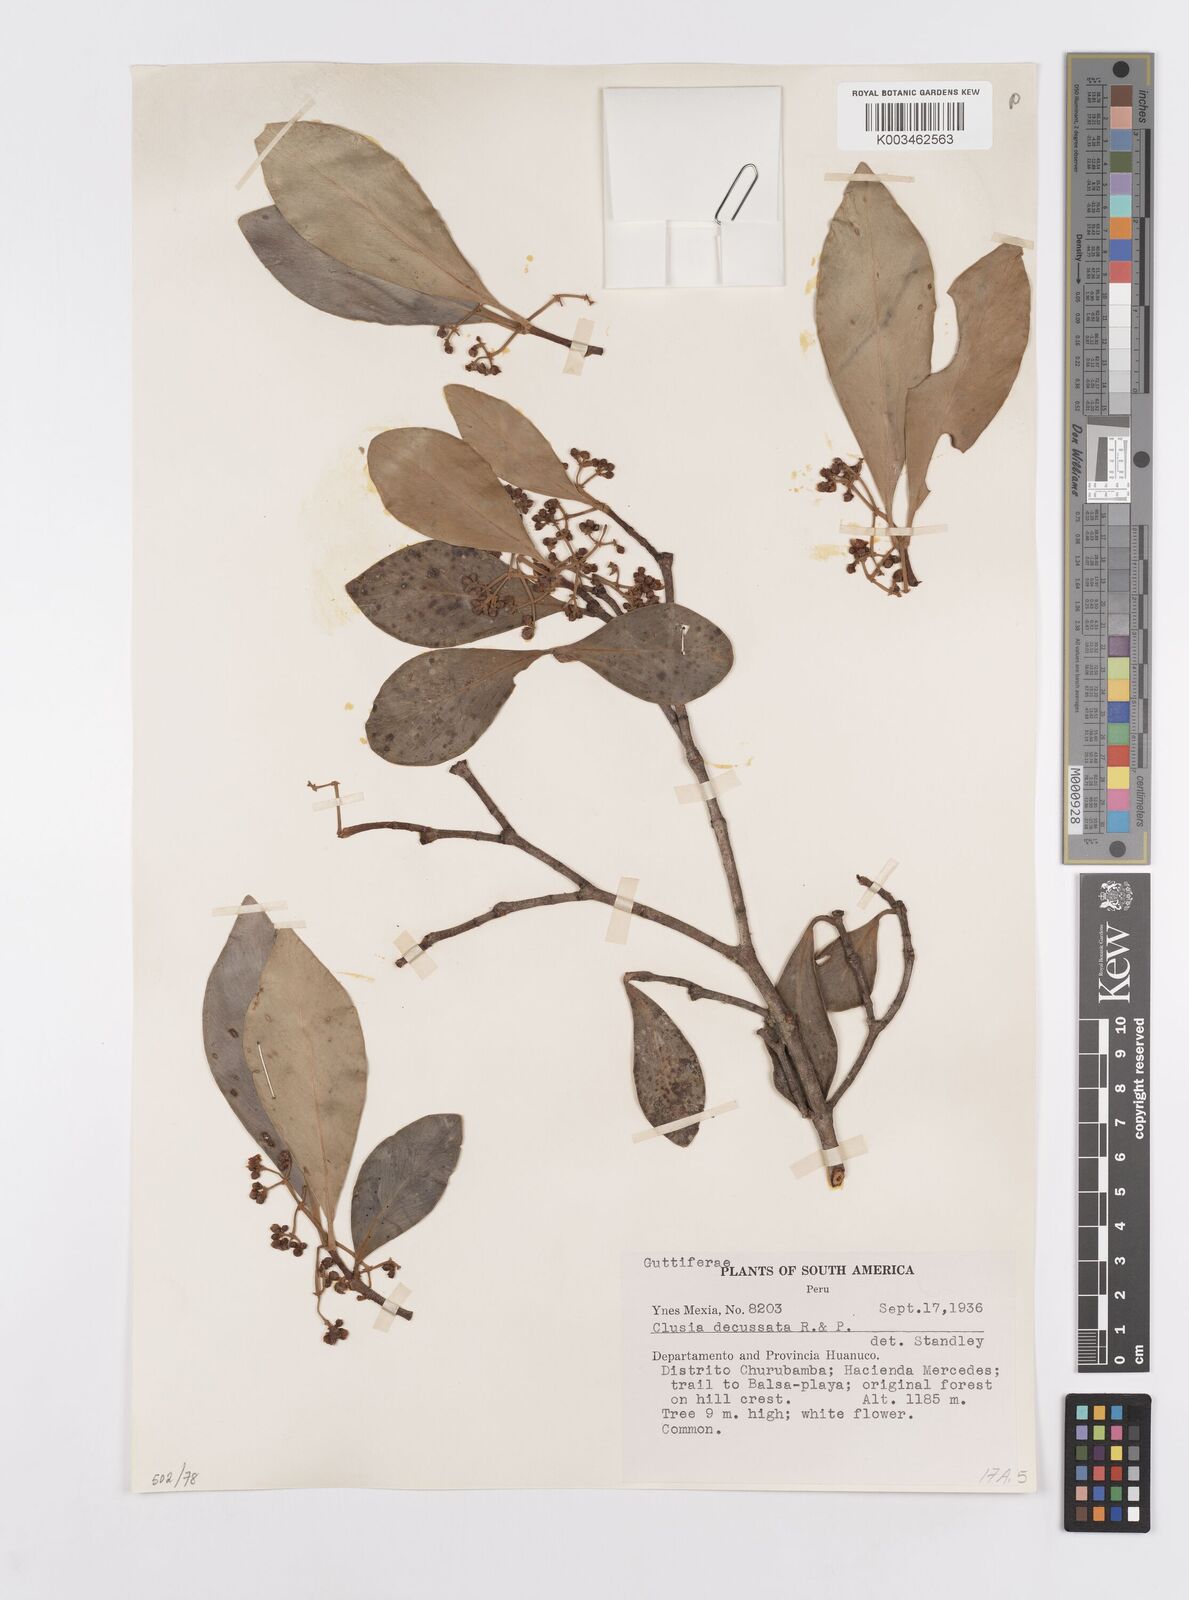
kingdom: Plantae
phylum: Tracheophyta
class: Magnoliopsida
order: Malpighiales
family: Clusiaceae
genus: Clusia
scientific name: Clusia decussata
